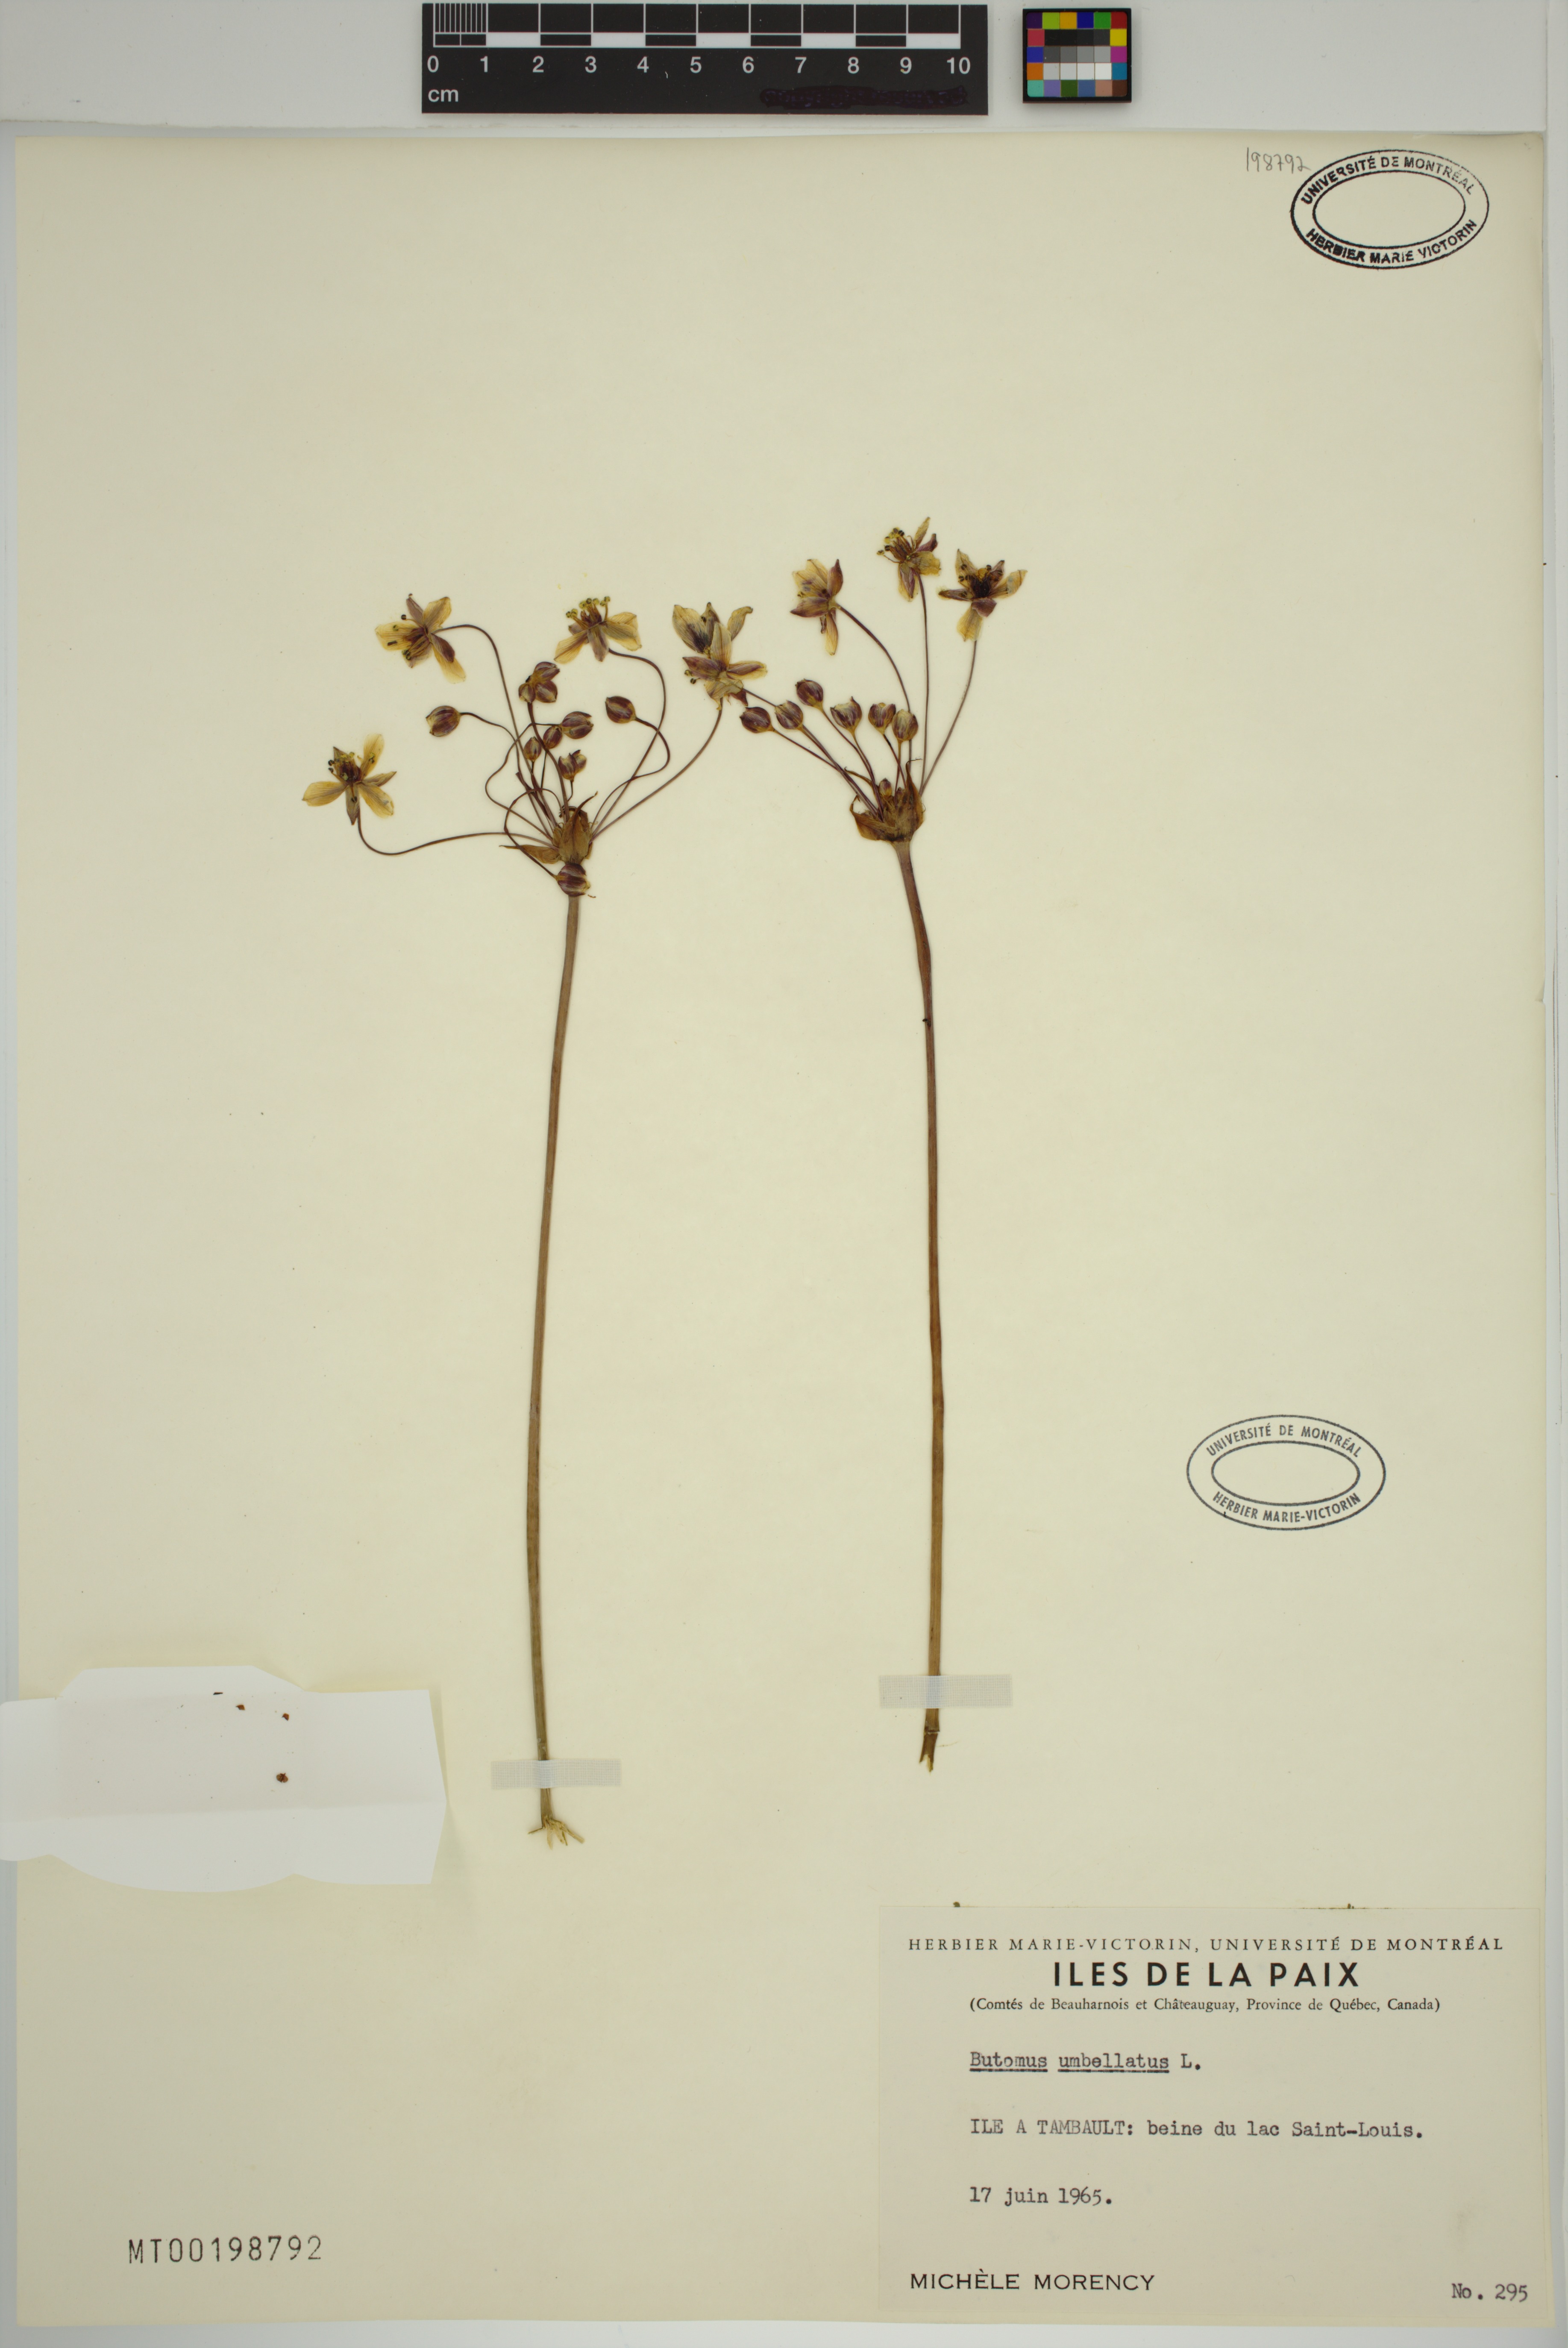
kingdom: Plantae
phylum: Tracheophyta
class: Liliopsida
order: Alismatales
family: Butomaceae
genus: Butomus
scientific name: Butomus umbellatus
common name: Flowering-rush
